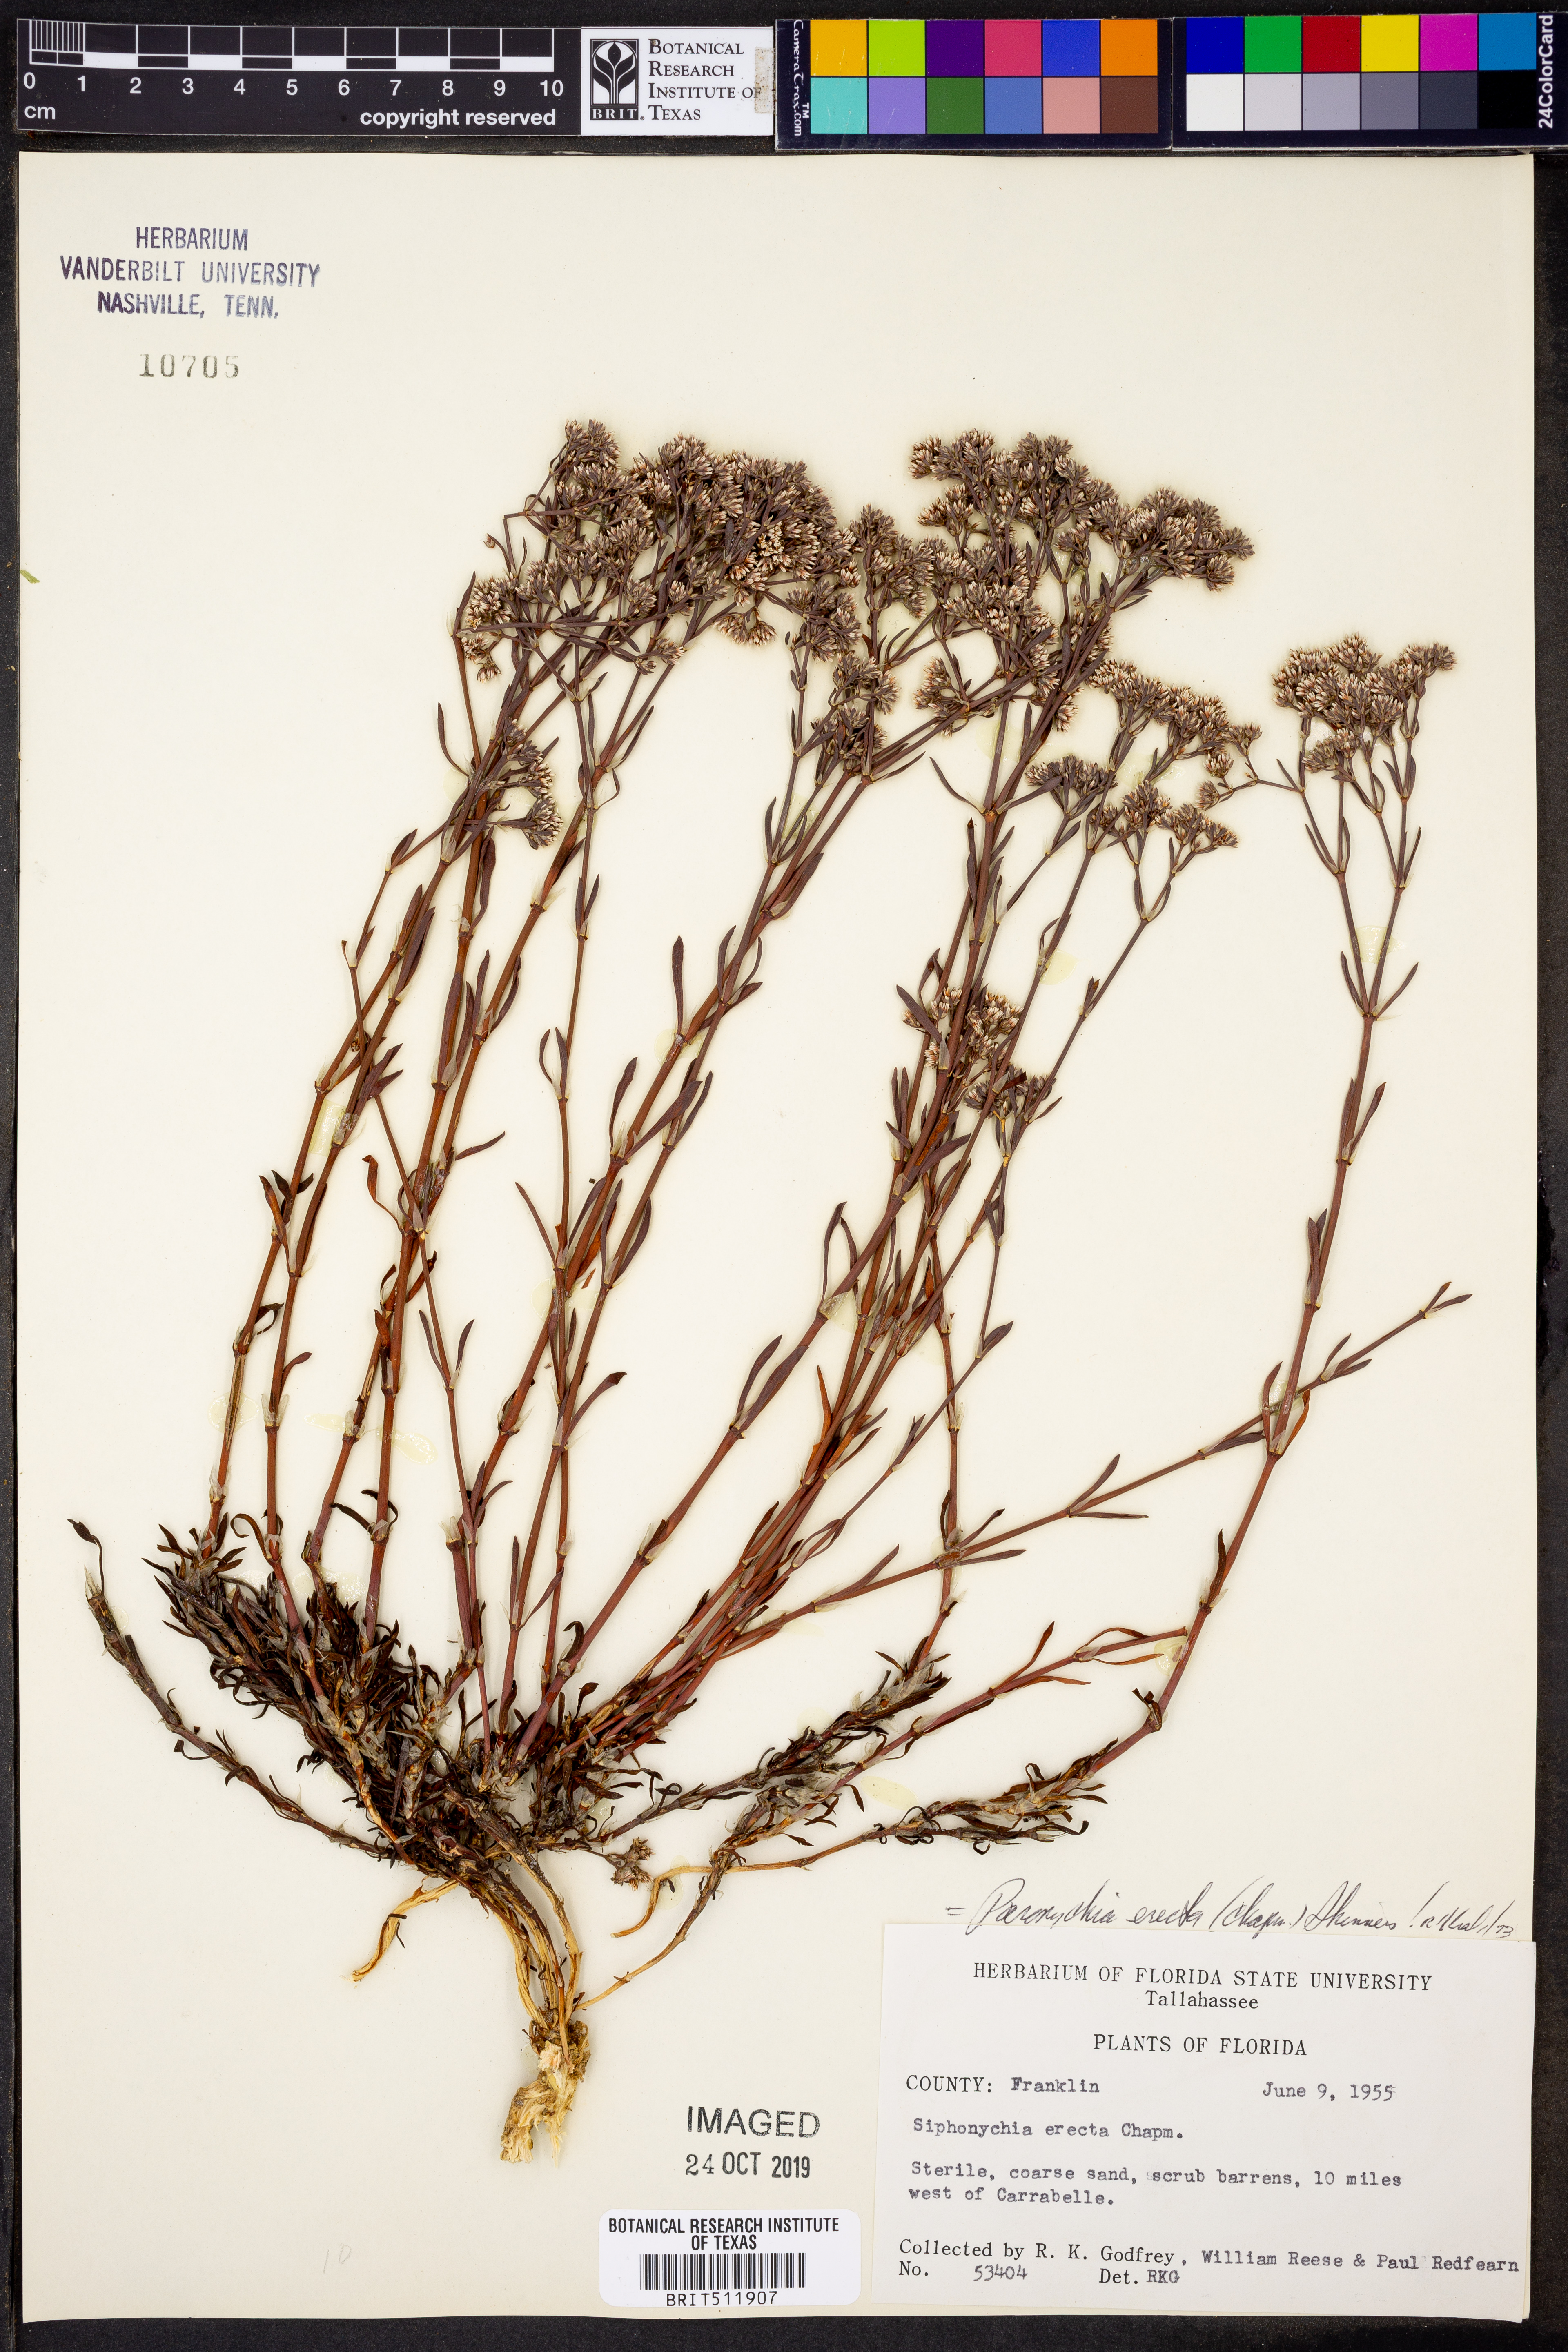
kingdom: Plantae
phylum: Tracheophyta
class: Magnoliopsida
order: Caryophyllales
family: Caryophyllaceae
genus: Paronychia
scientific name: Paronychia erecta
